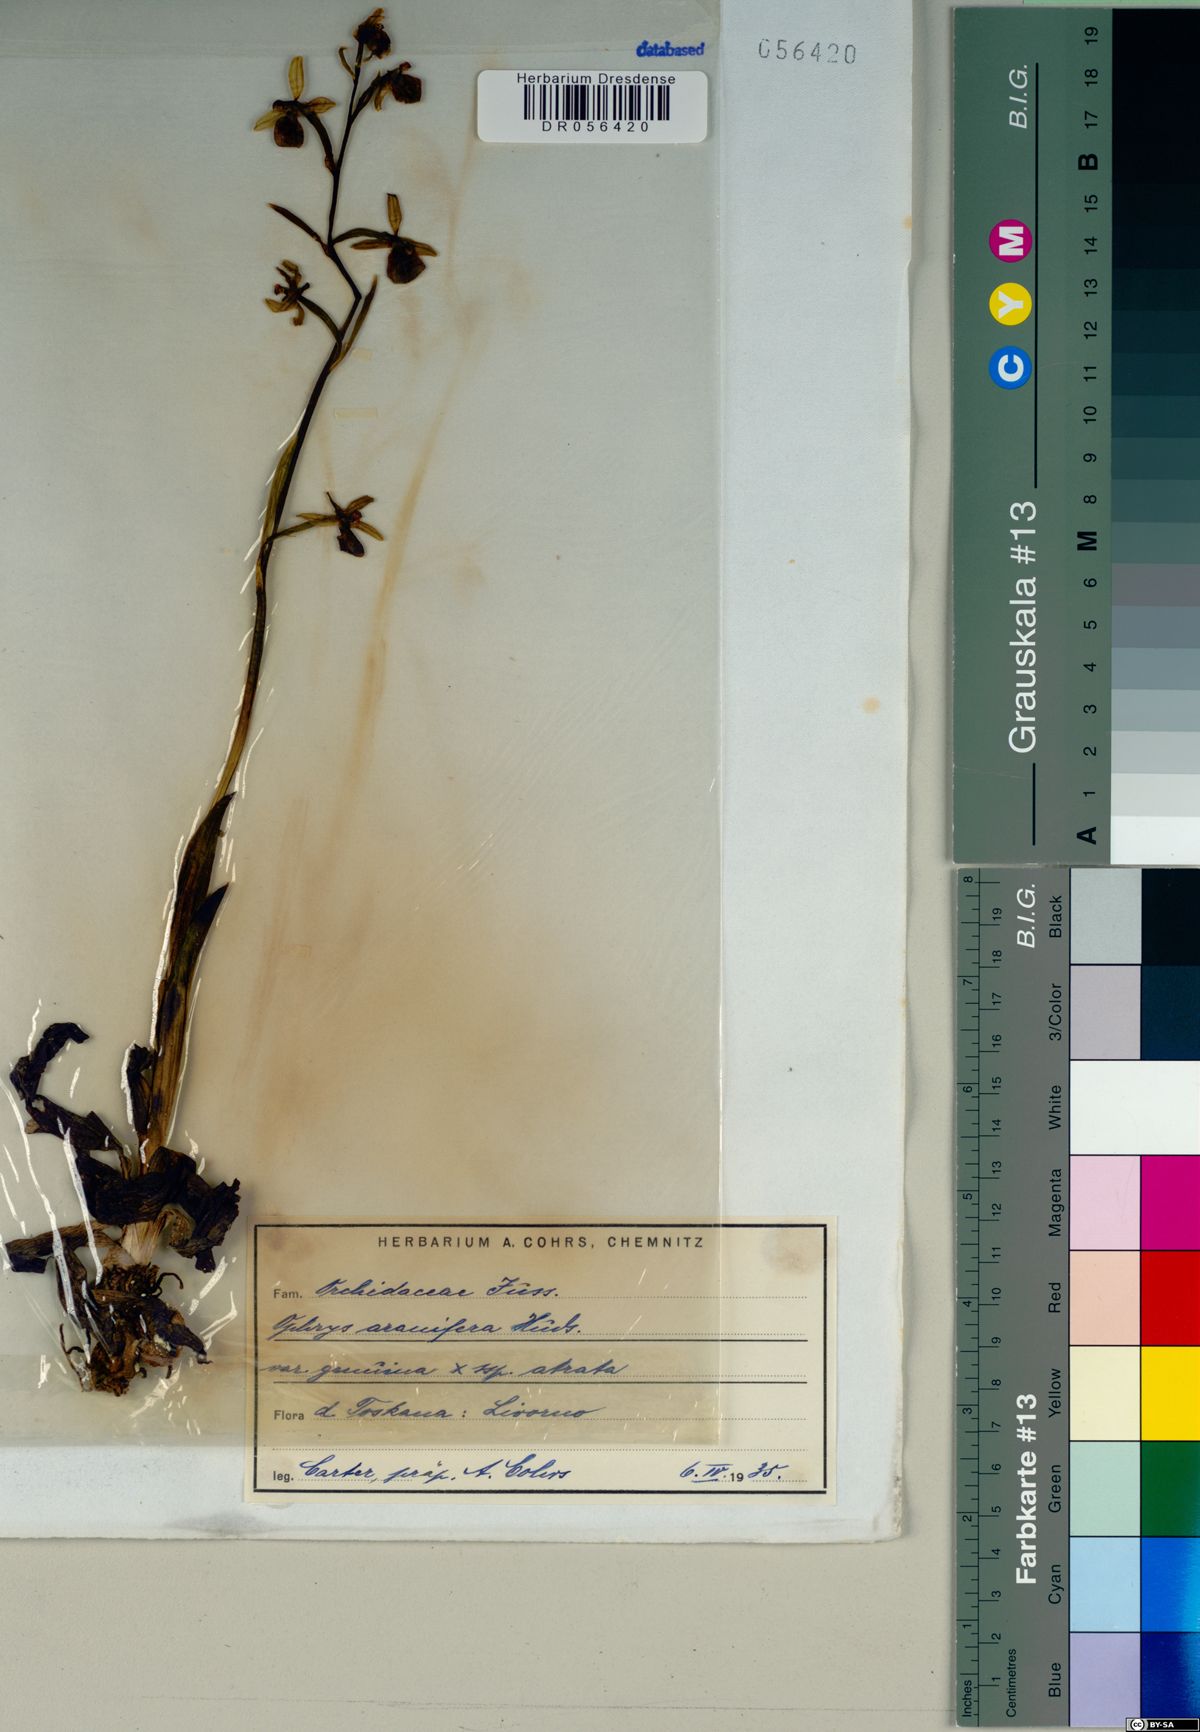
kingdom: Plantae
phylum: Tracheophyta
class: Liliopsida
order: Asparagales
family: Orchidaceae
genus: Ophrys
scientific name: Ophrys sphegodes
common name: Early spider-orchid
